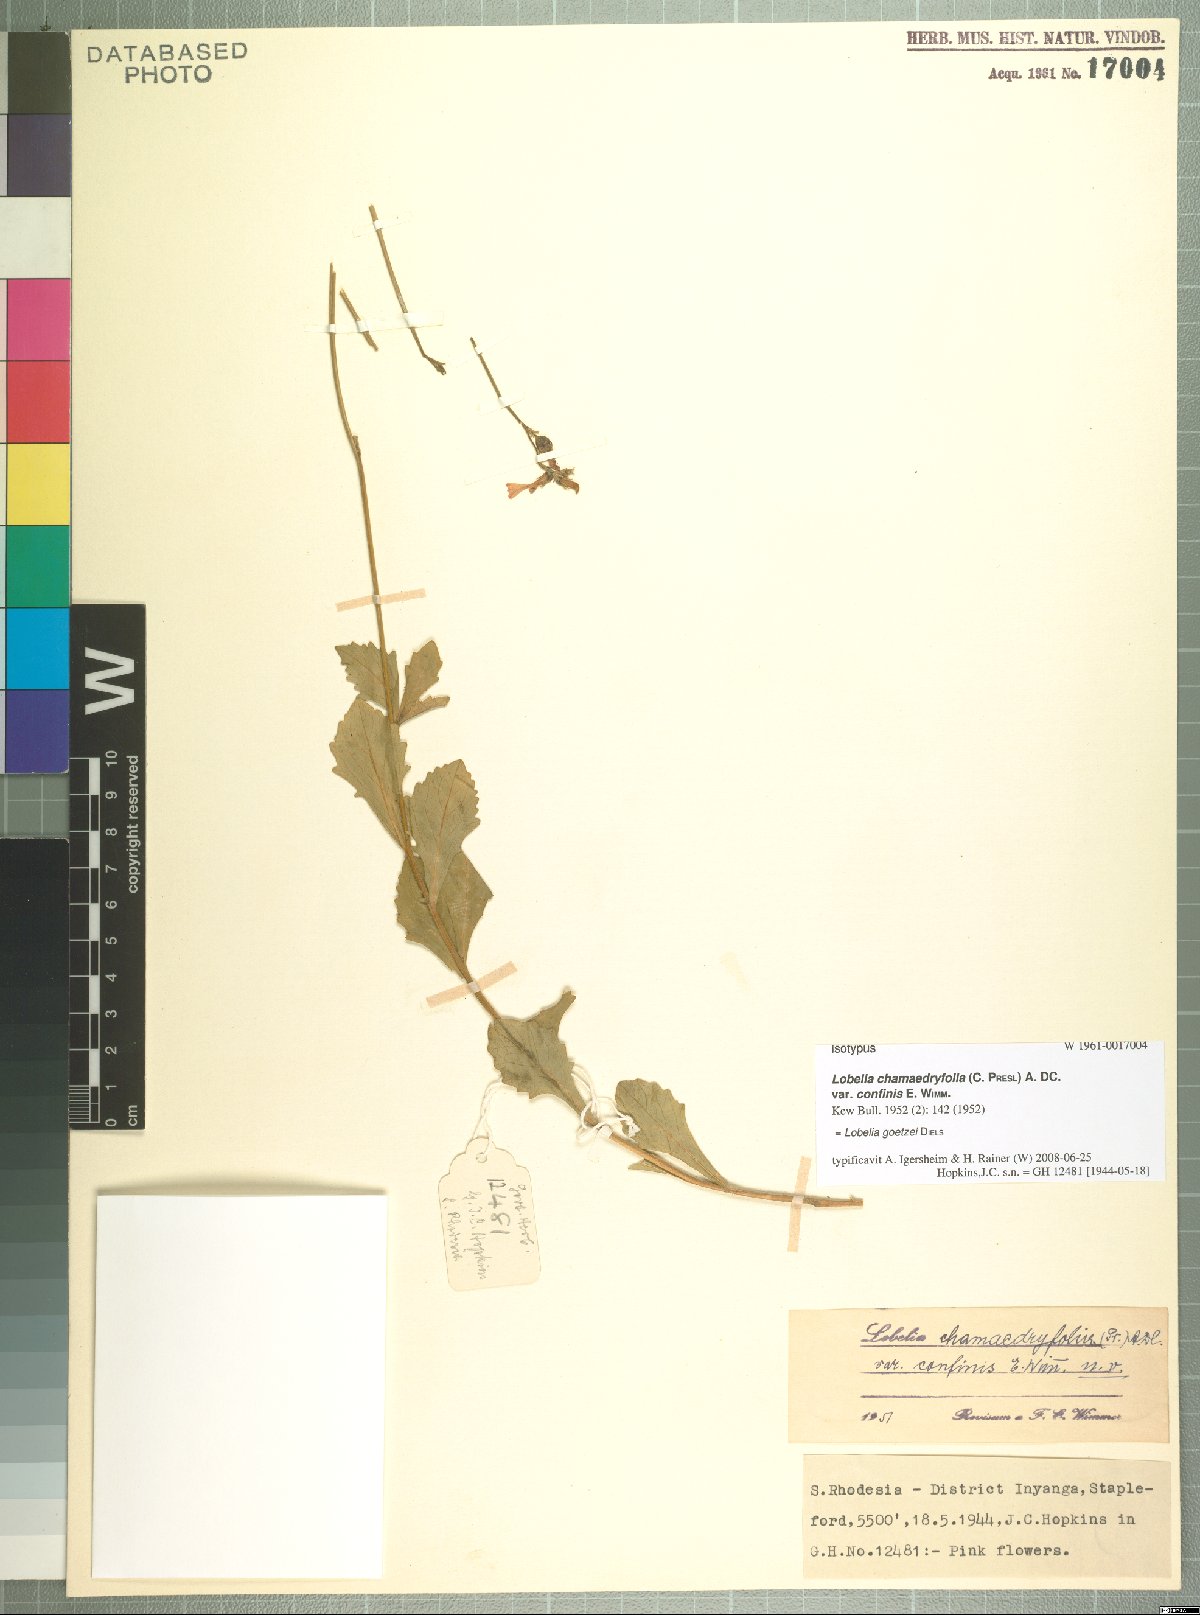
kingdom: Plantae
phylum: Tracheophyta
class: Magnoliopsida
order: Asterales
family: Campanulaceae
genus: Lobelia
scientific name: Lobelia goetzei
